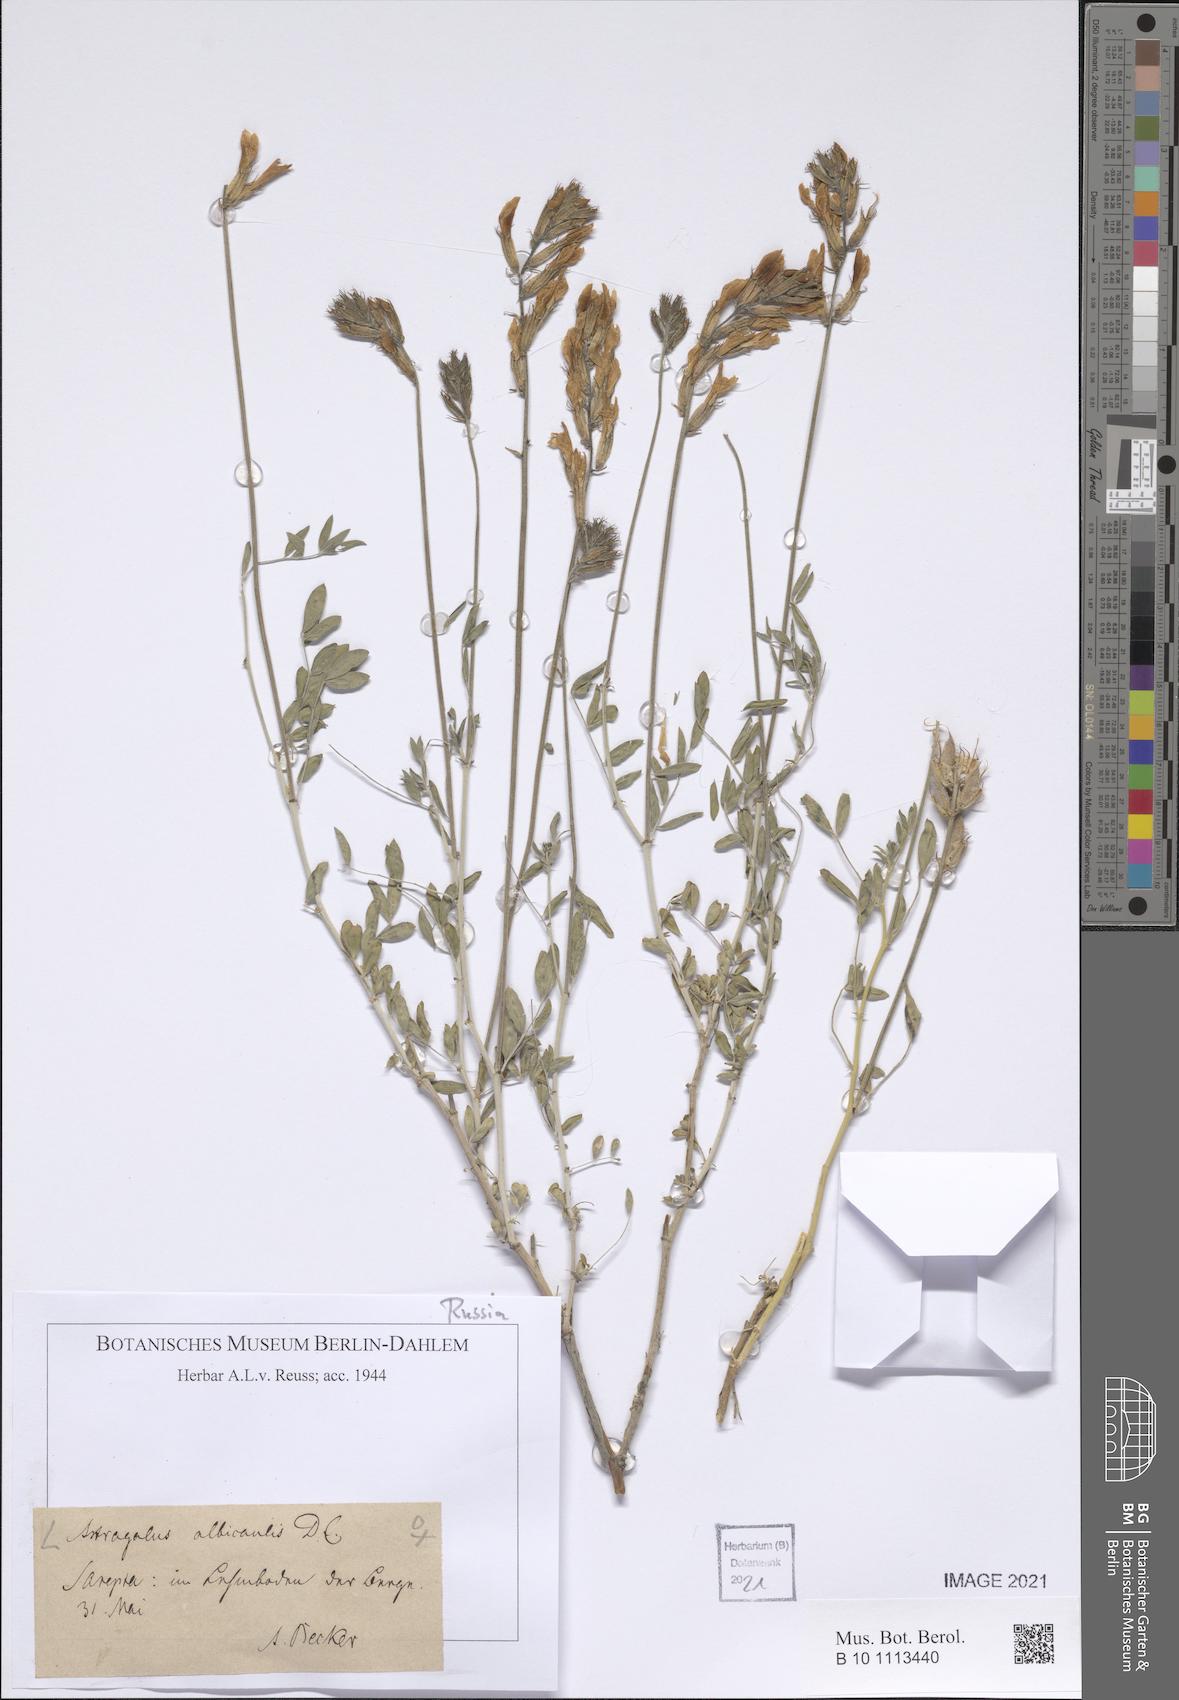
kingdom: Plantae
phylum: Tracheophyta
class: Magnoliopsida
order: Fabales
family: Fabaceae
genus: Astragalus
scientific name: Astragalus albicaulis
